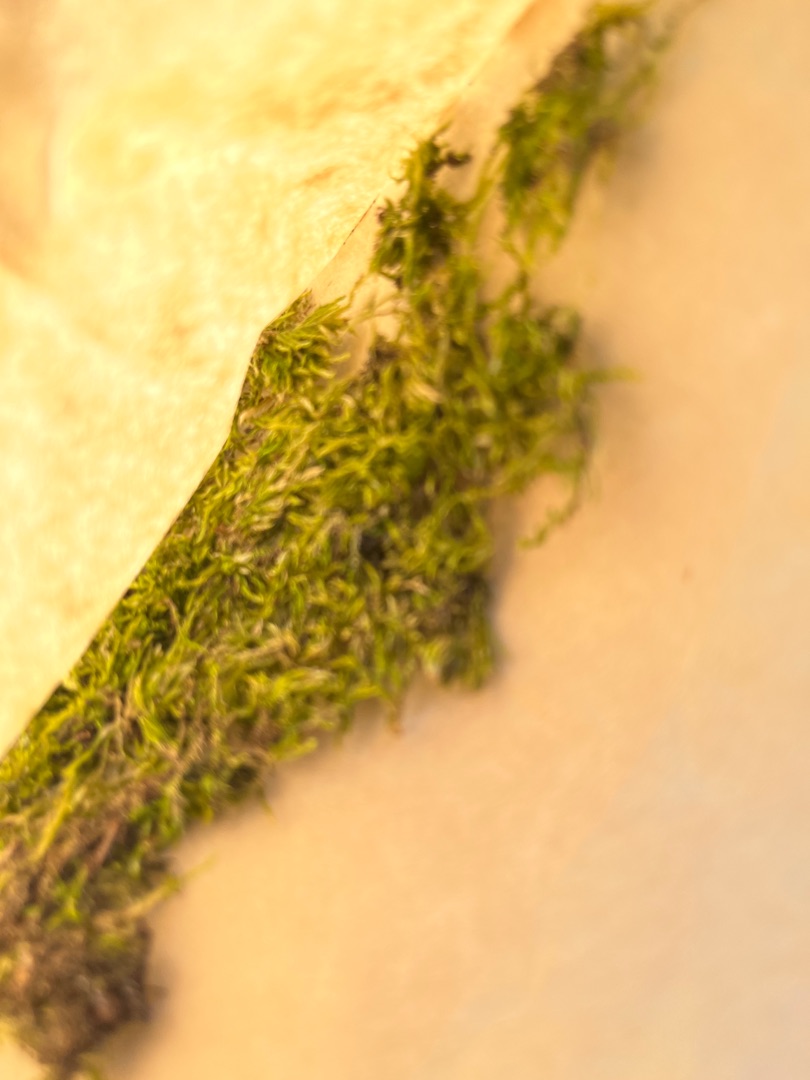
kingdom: Plantae
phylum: Bryophyta
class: Bryopsida
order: Hypnales
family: Hypnaceae
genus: Hypnum
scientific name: Hypnum
